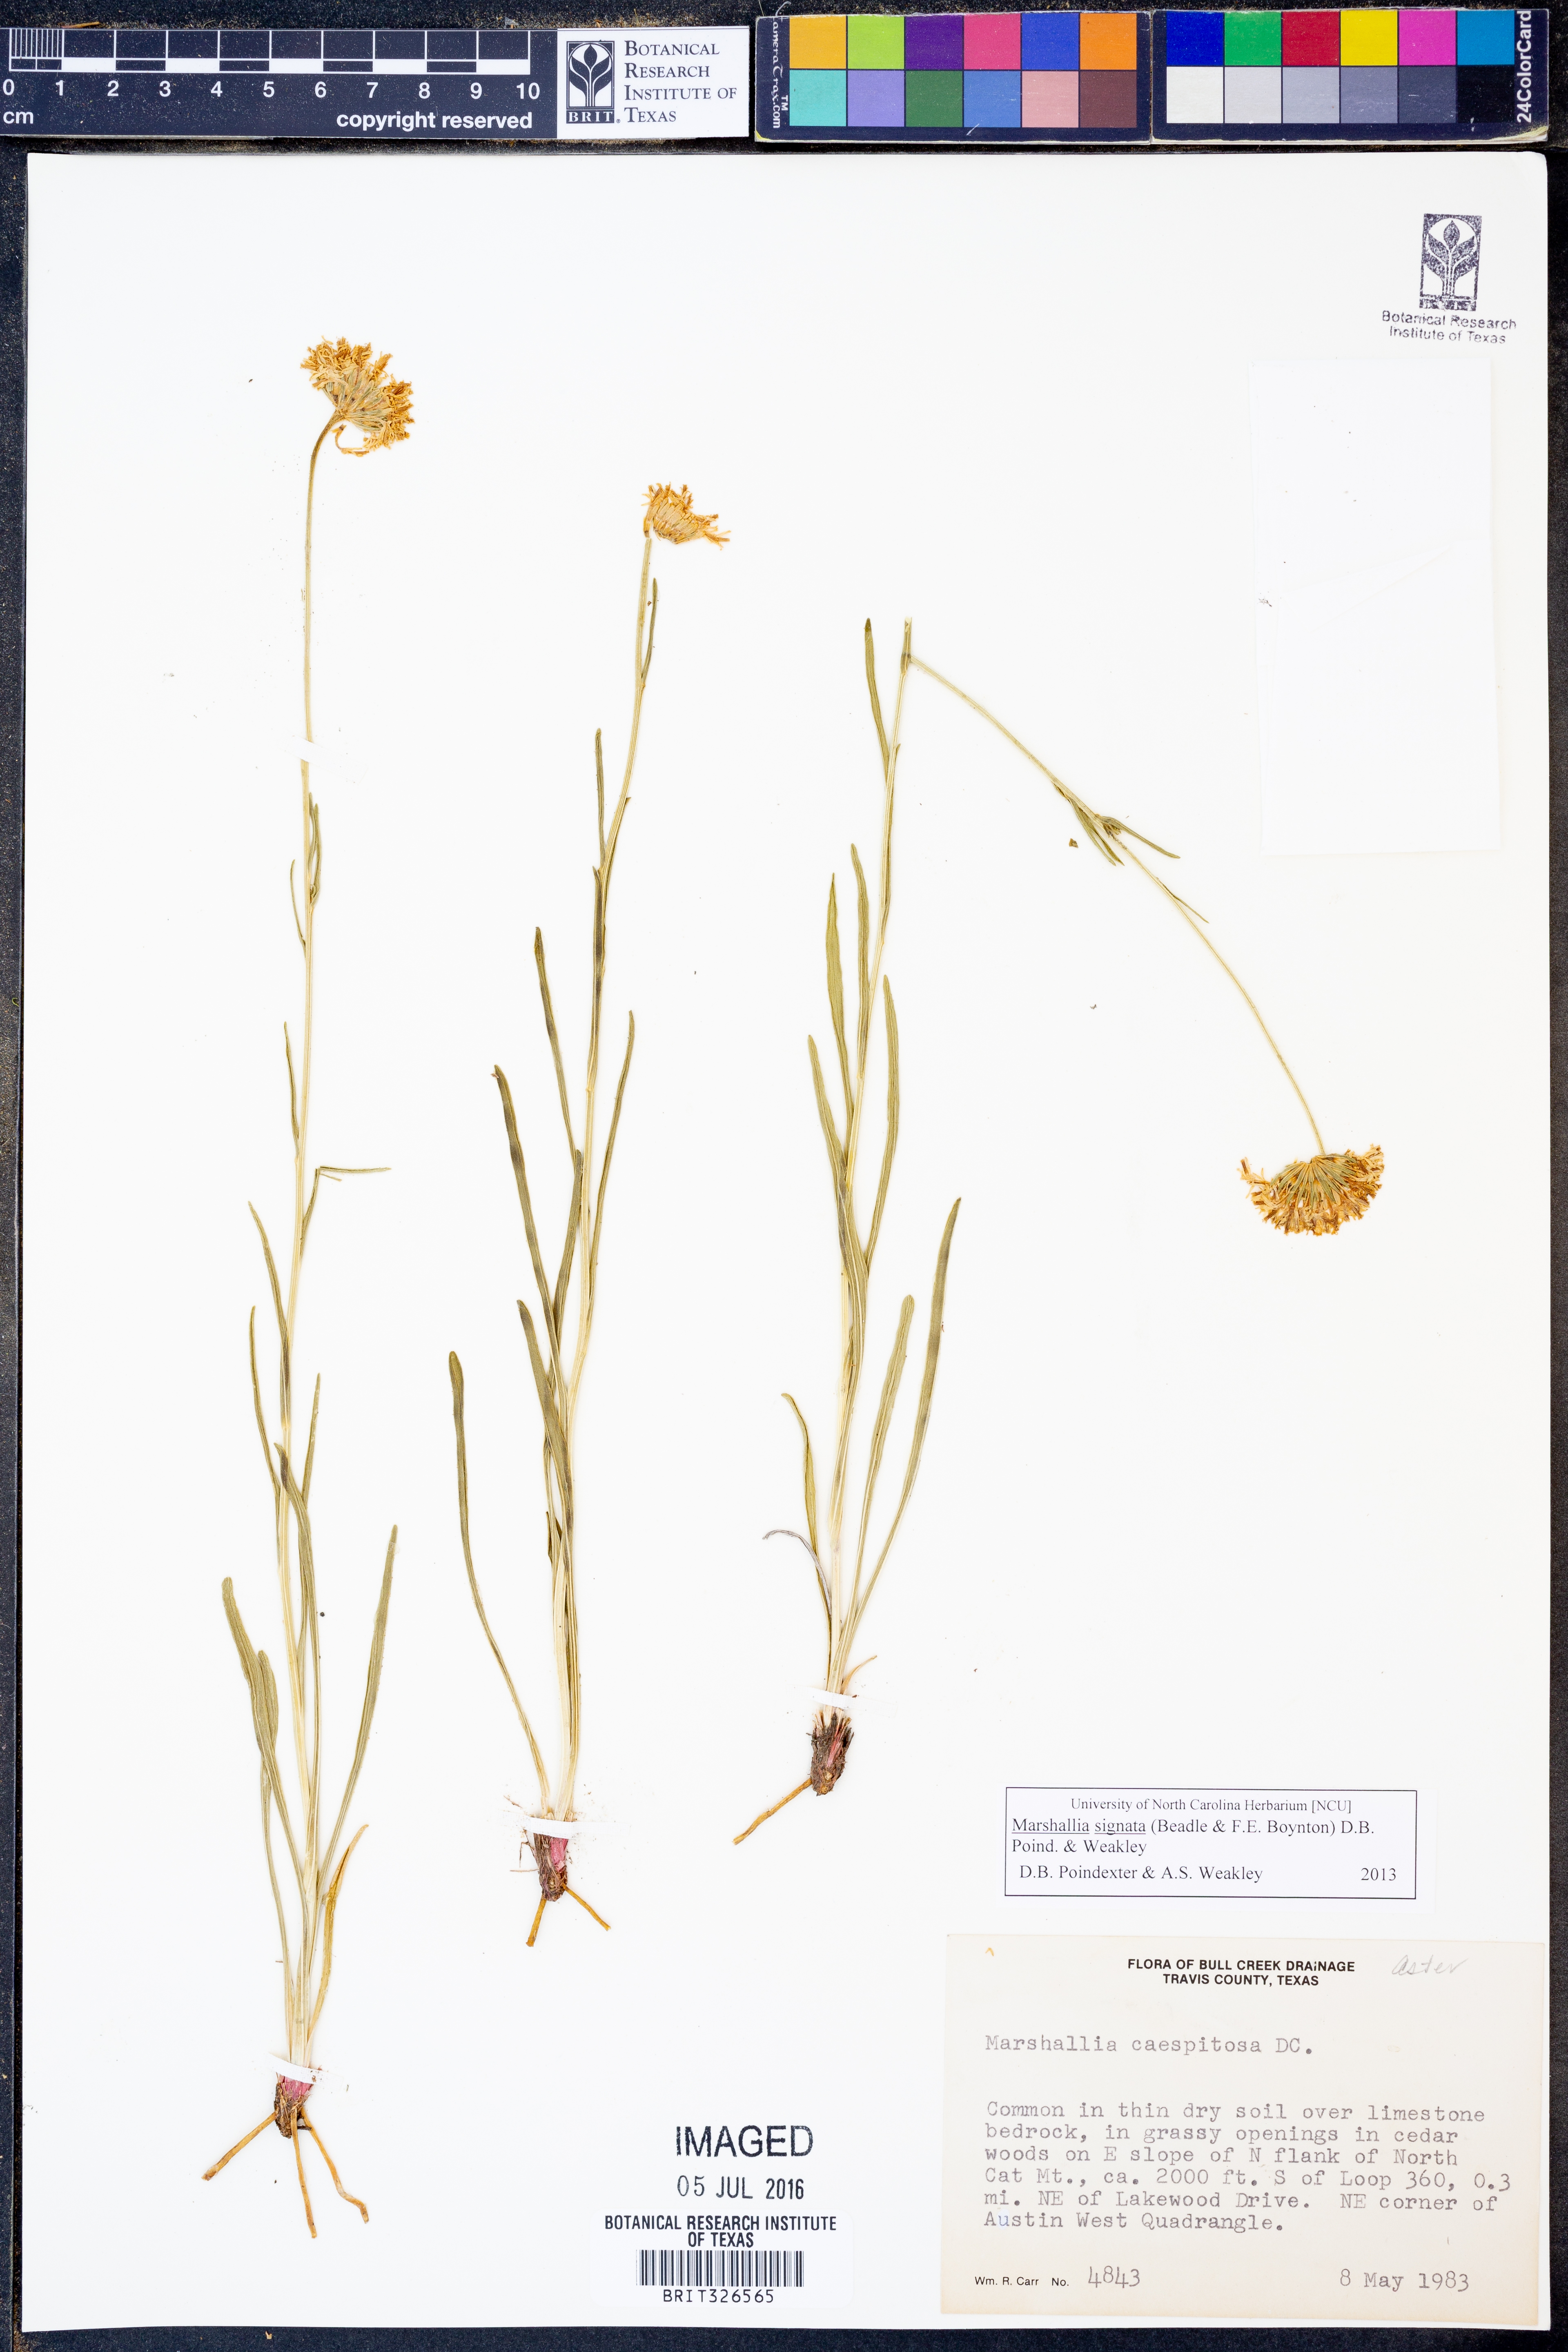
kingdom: Plantae
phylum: Tracheophyta
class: Magnoliopsida
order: Asterales
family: Asteraceae
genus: Marshallia
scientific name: Marshallia
